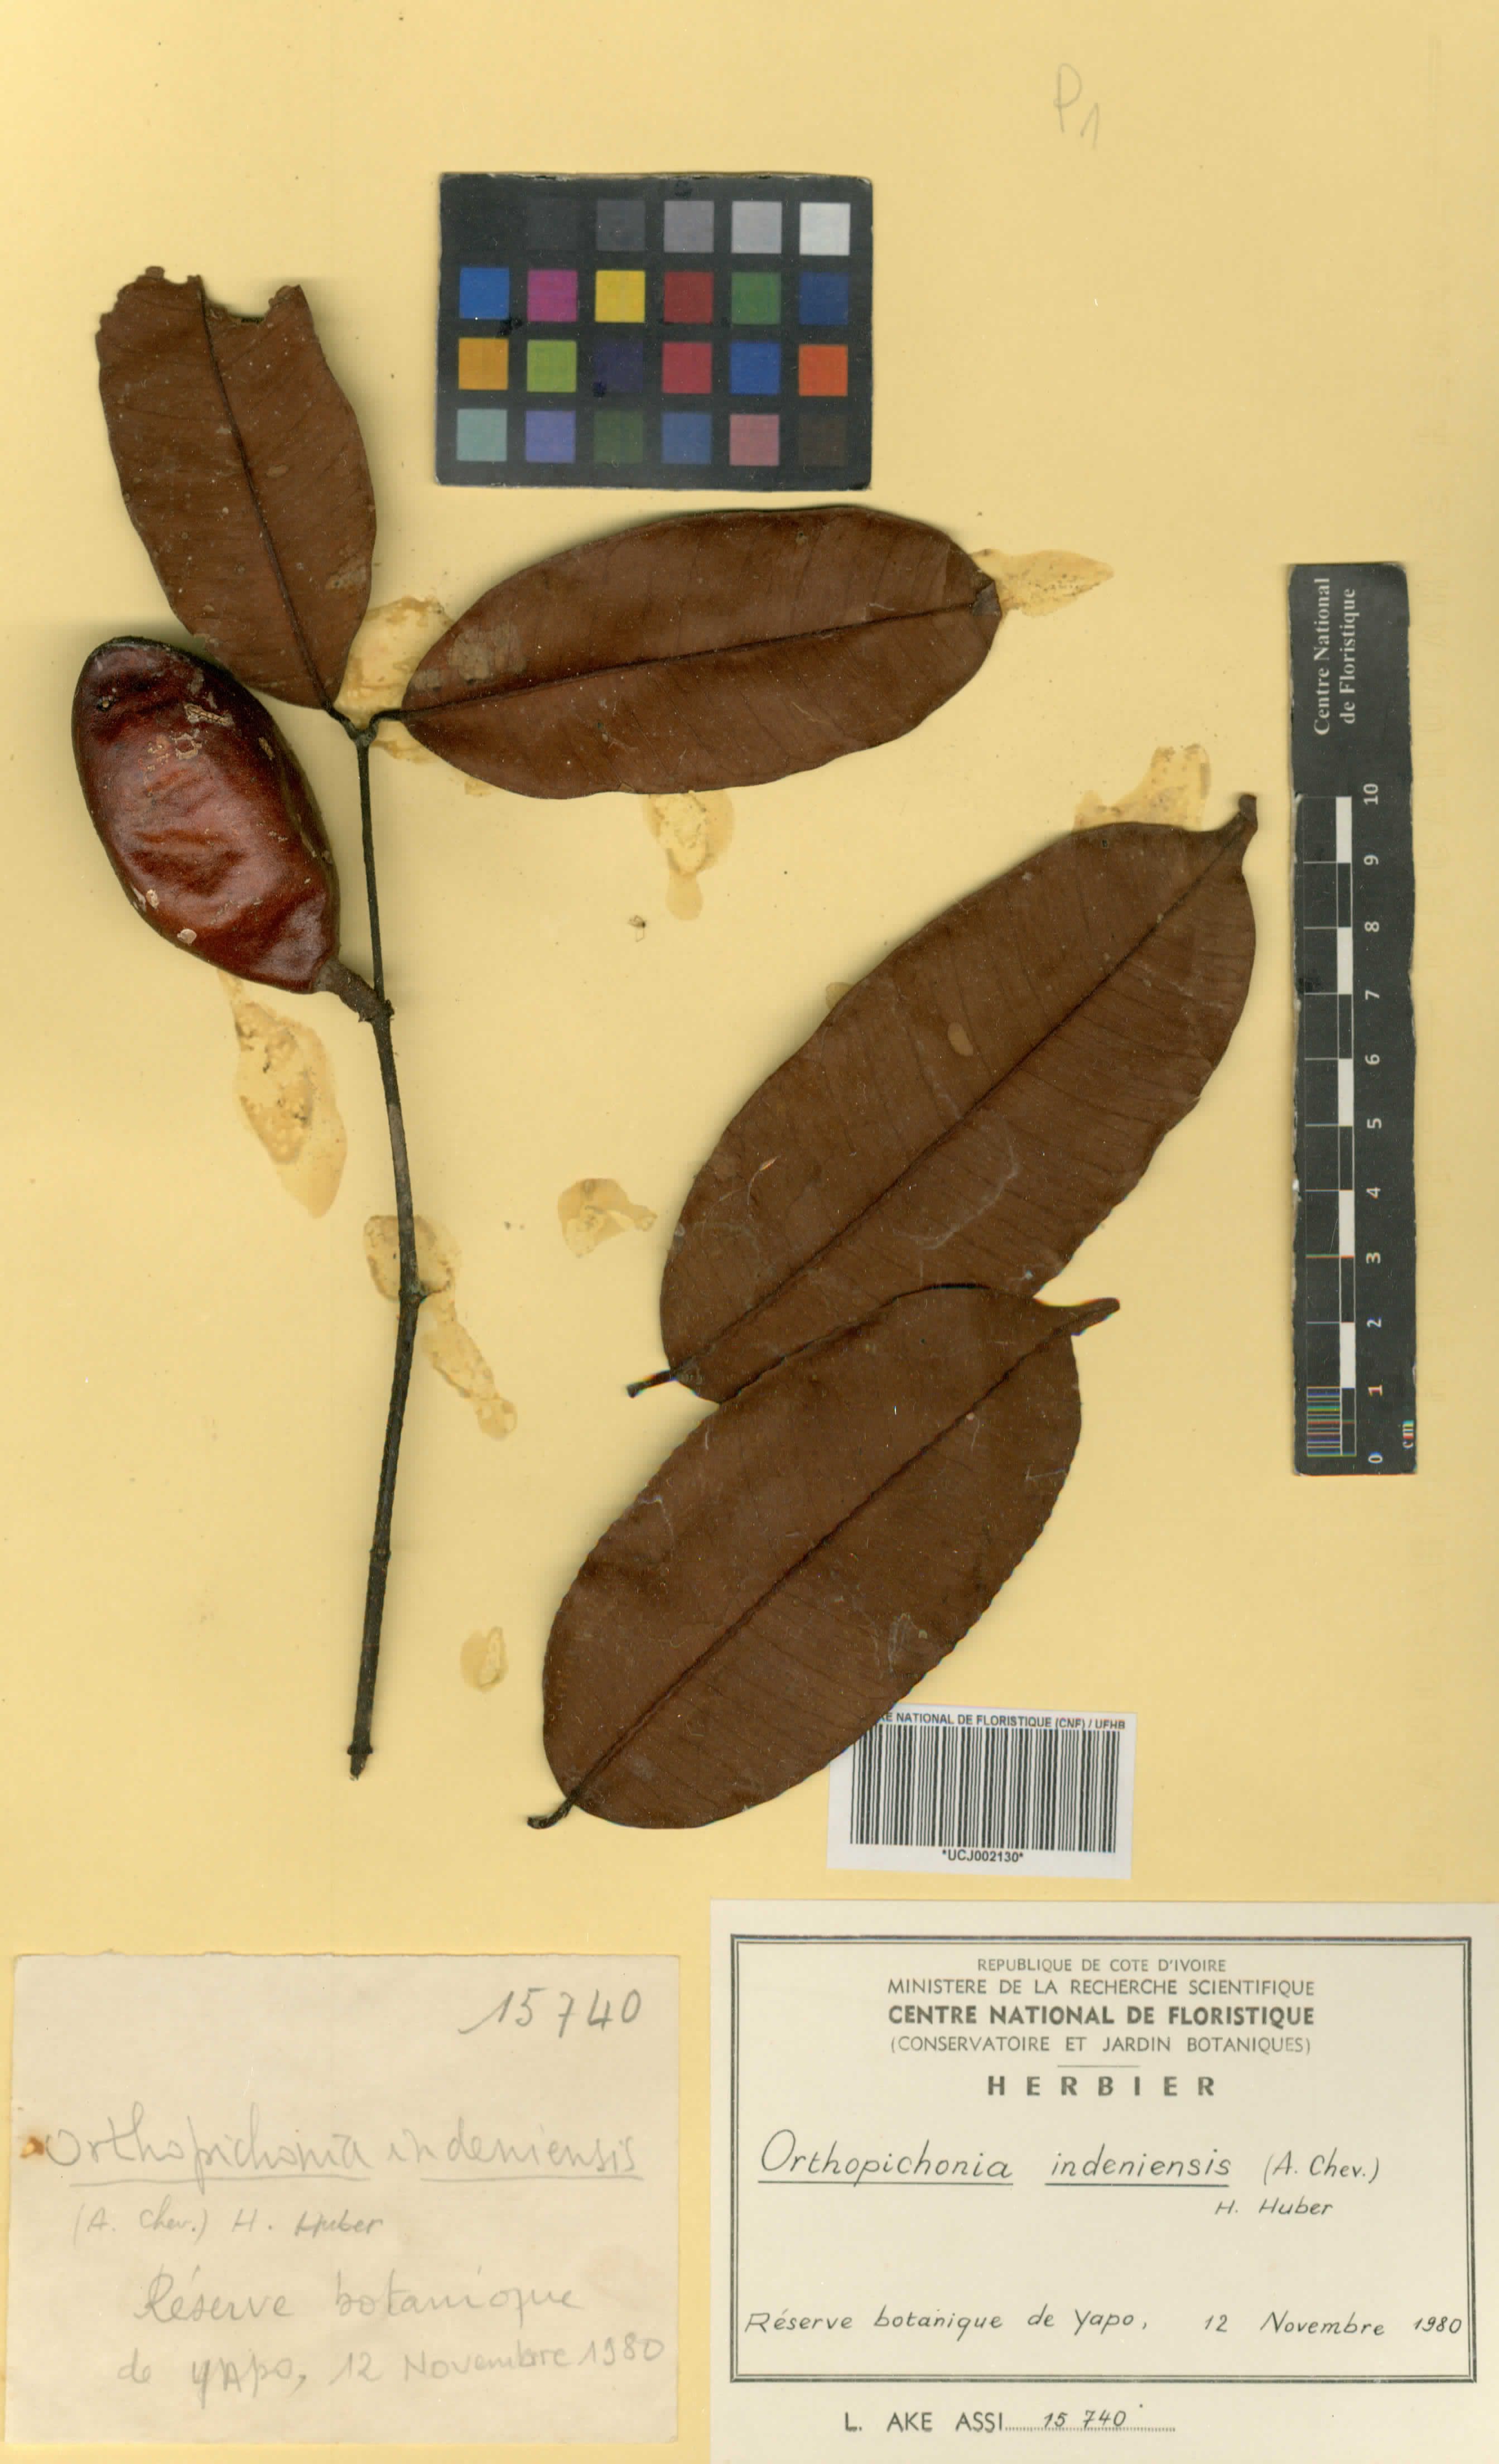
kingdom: Plantae
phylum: Tracheophyta
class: Magnoliopsida
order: Gentianales
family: Apocynaceae
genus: Orthopichonia
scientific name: Orthopichonia indeniensis
